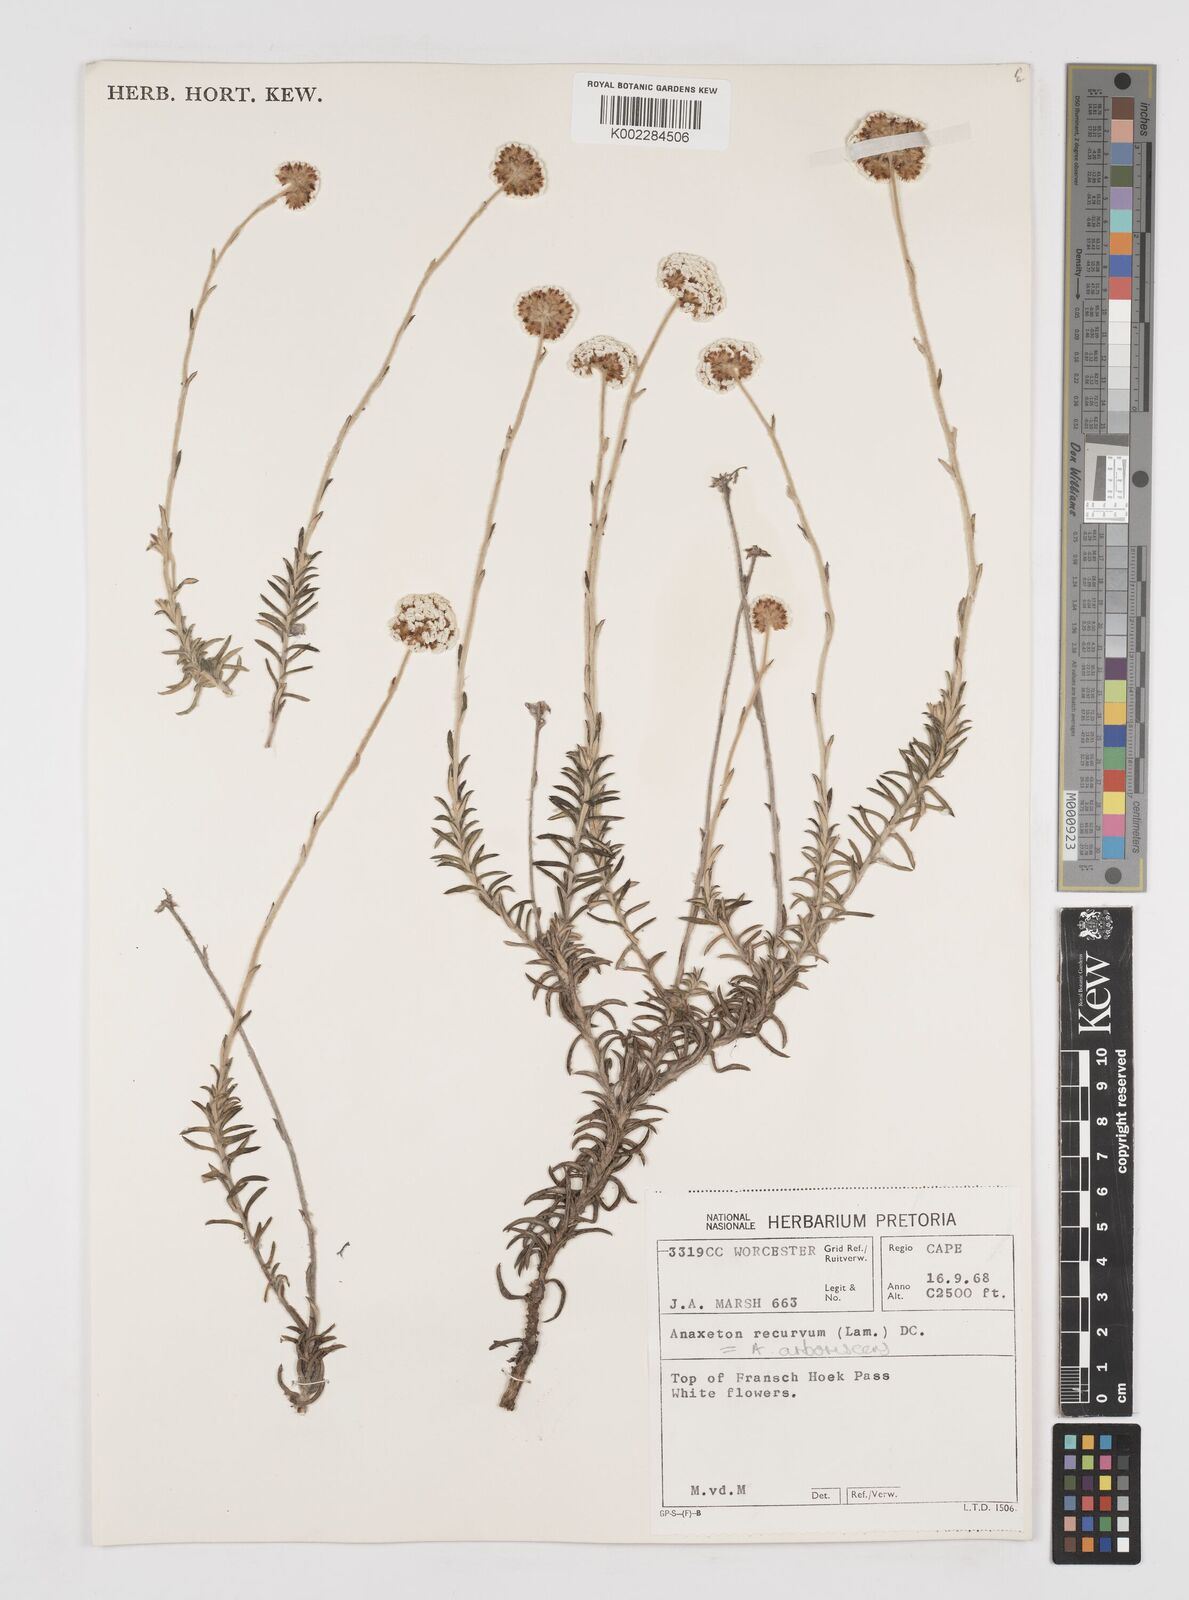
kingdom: Plantae
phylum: Tracheophyta
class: Magnoliopsida
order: Asterales
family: Asteraceae
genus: Anaxeton
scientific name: Anaxeton arborescens
